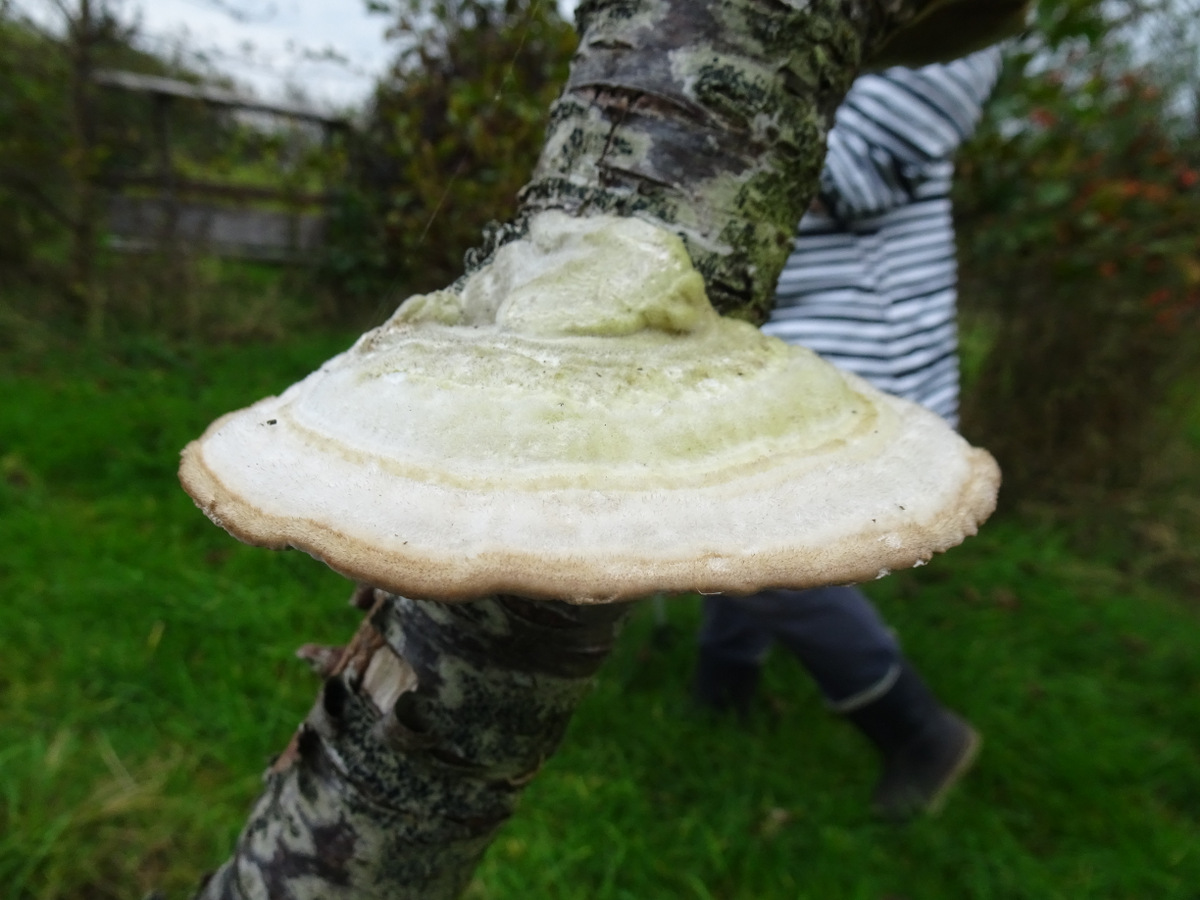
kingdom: Fungi
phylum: Basidiomycota
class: Agaricomycetes
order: Polyporales
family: Polyporaceae
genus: Trametes
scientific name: Trametes hirsuta
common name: håret læderporesvamp
